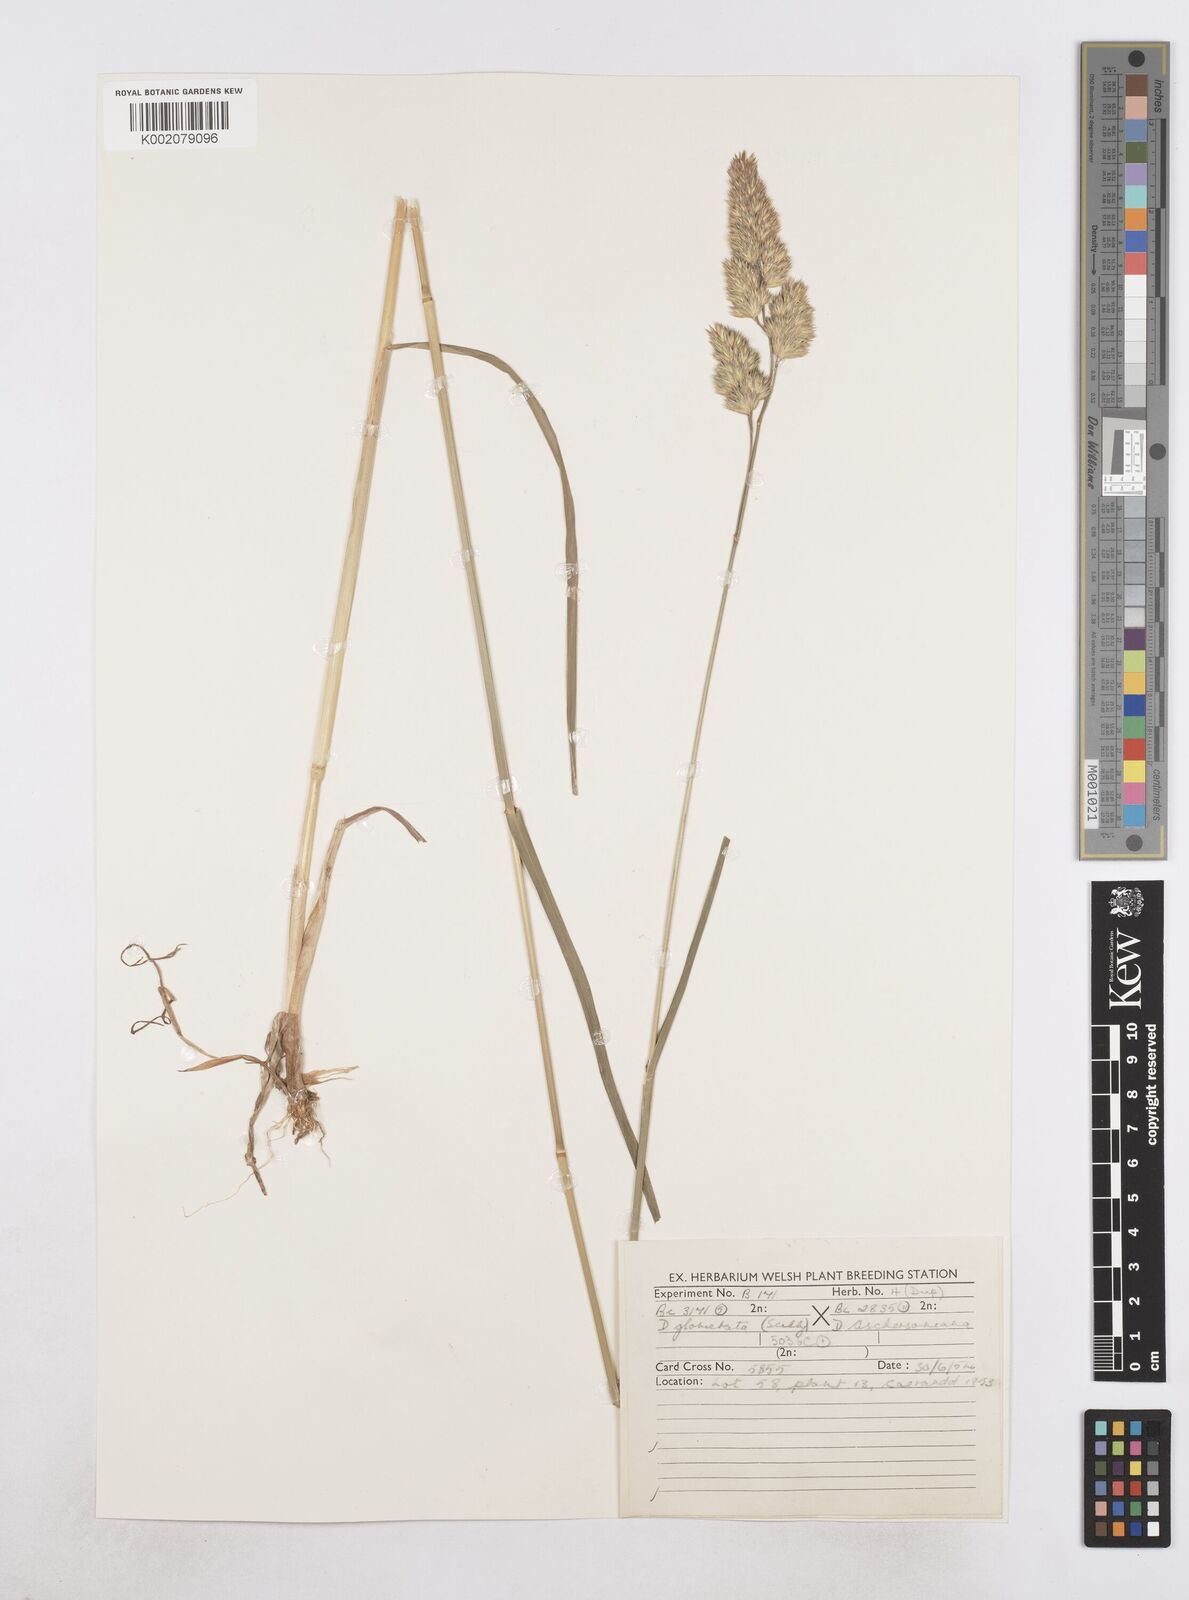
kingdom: Plantae
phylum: Tracheophyta
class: Liliopsida
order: Poales
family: Poaceae
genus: Dactylis
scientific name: Dactylis glomerata
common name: Orchardgrass
